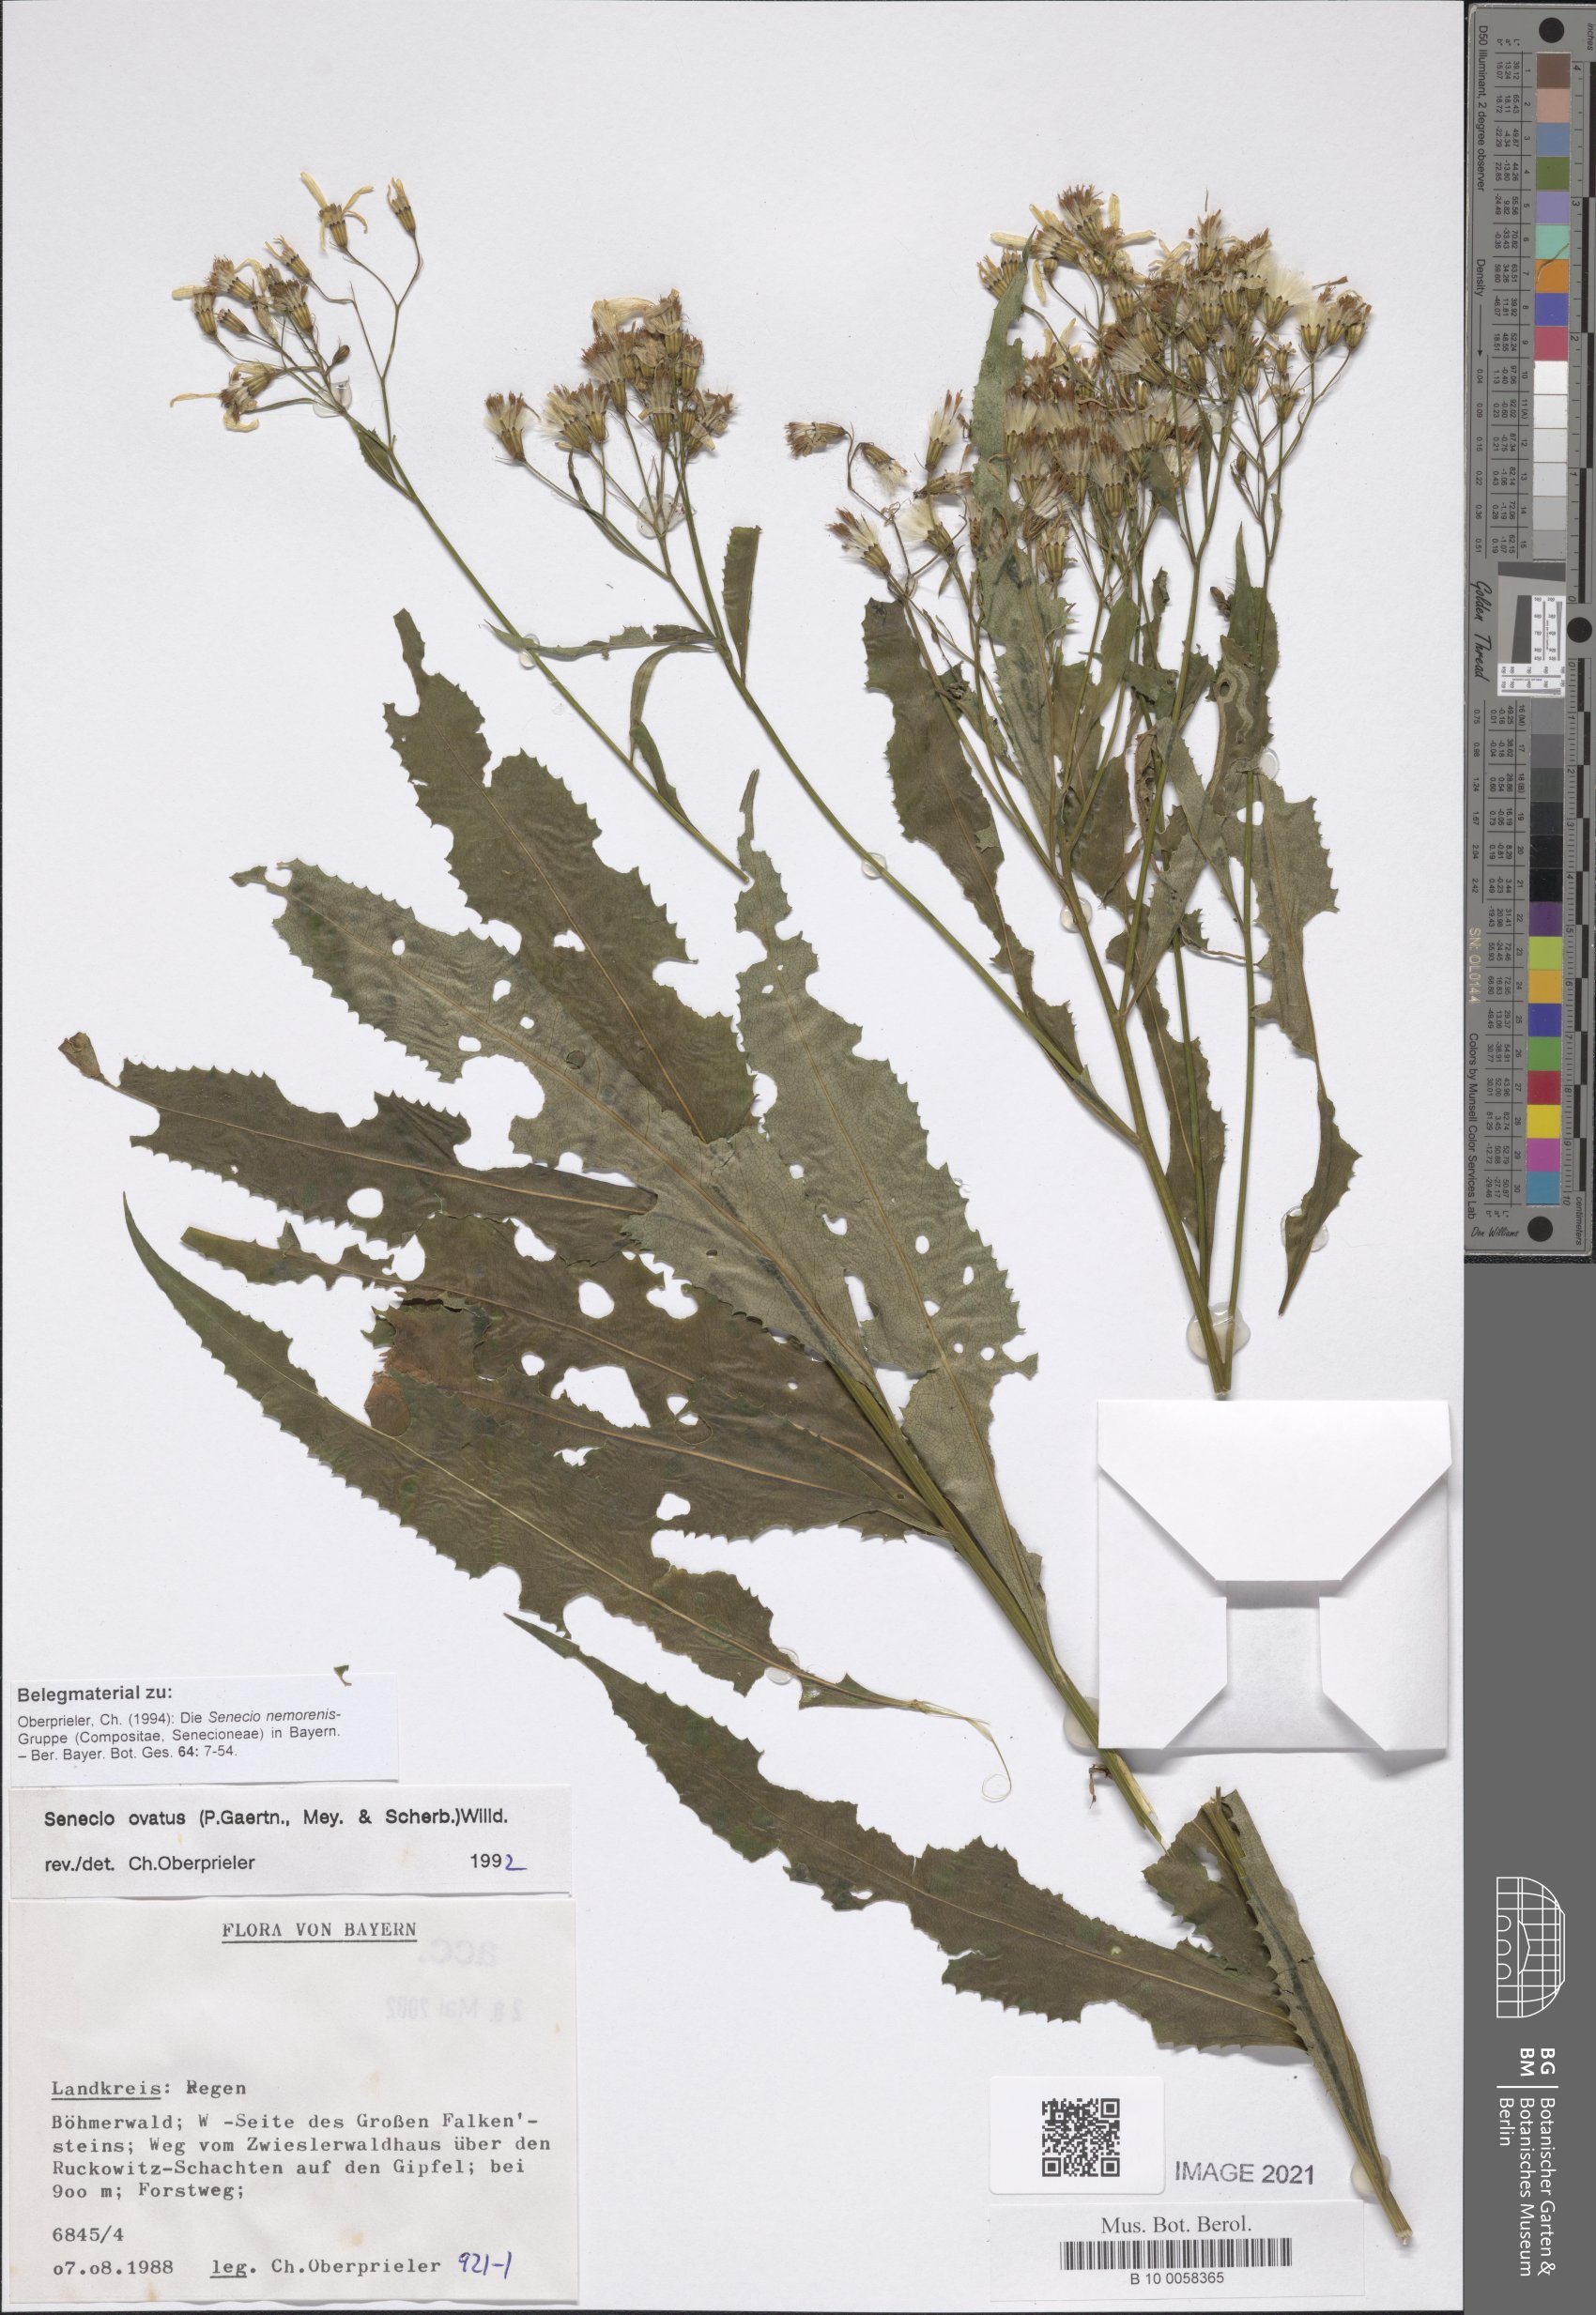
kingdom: Plantae
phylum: Tracheophyta
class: Magnoliopsida
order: Asterales
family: Asteraceae
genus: Senecio
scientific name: Senecio ovatus
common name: Wood ragwort
